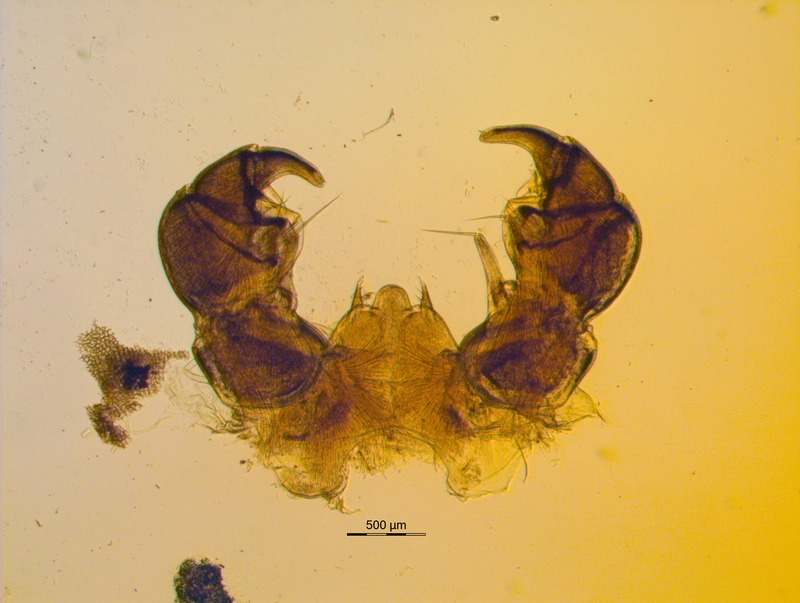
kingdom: Animalia
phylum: Arthropoda
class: Diplopoda
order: Glomerida
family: Glomeridae
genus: Glomeris
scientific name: Glomeris conspersa
